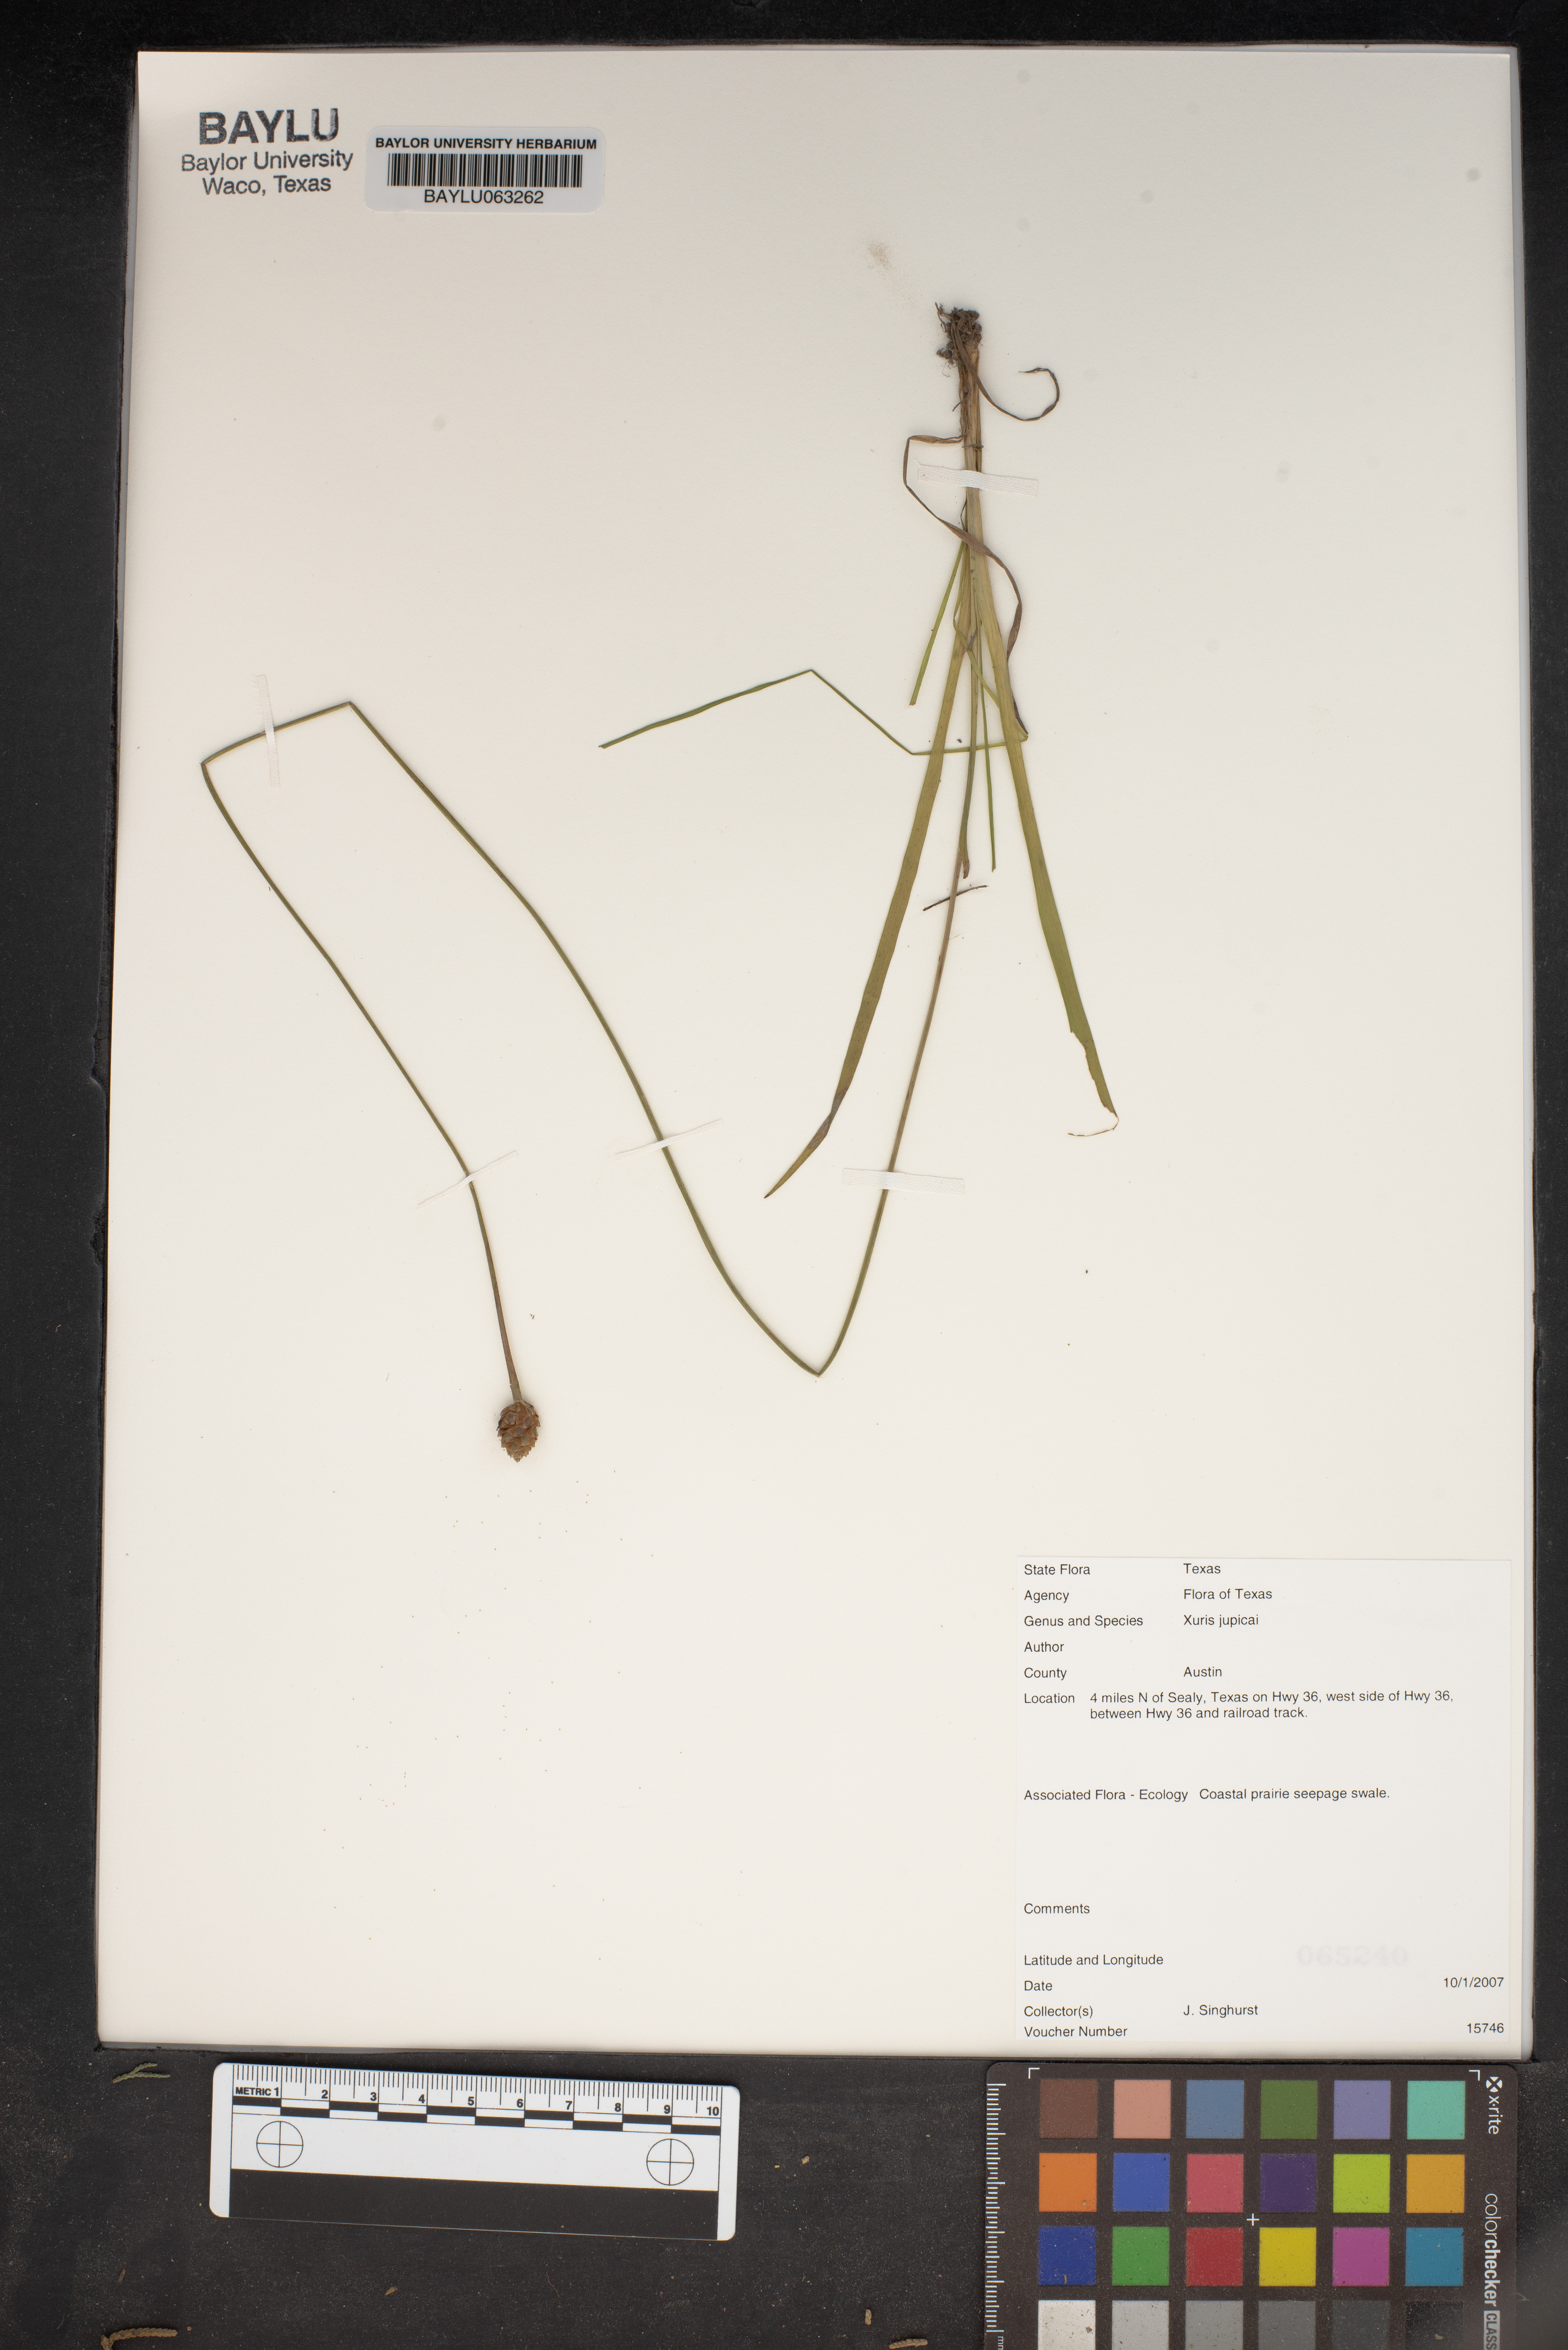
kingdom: Plantae
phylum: Tracheophyta
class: Liliopsida
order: Poales
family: Xyridaceae
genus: Xyris
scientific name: Xyris jupicai
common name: Richard's yelloweyed grass
